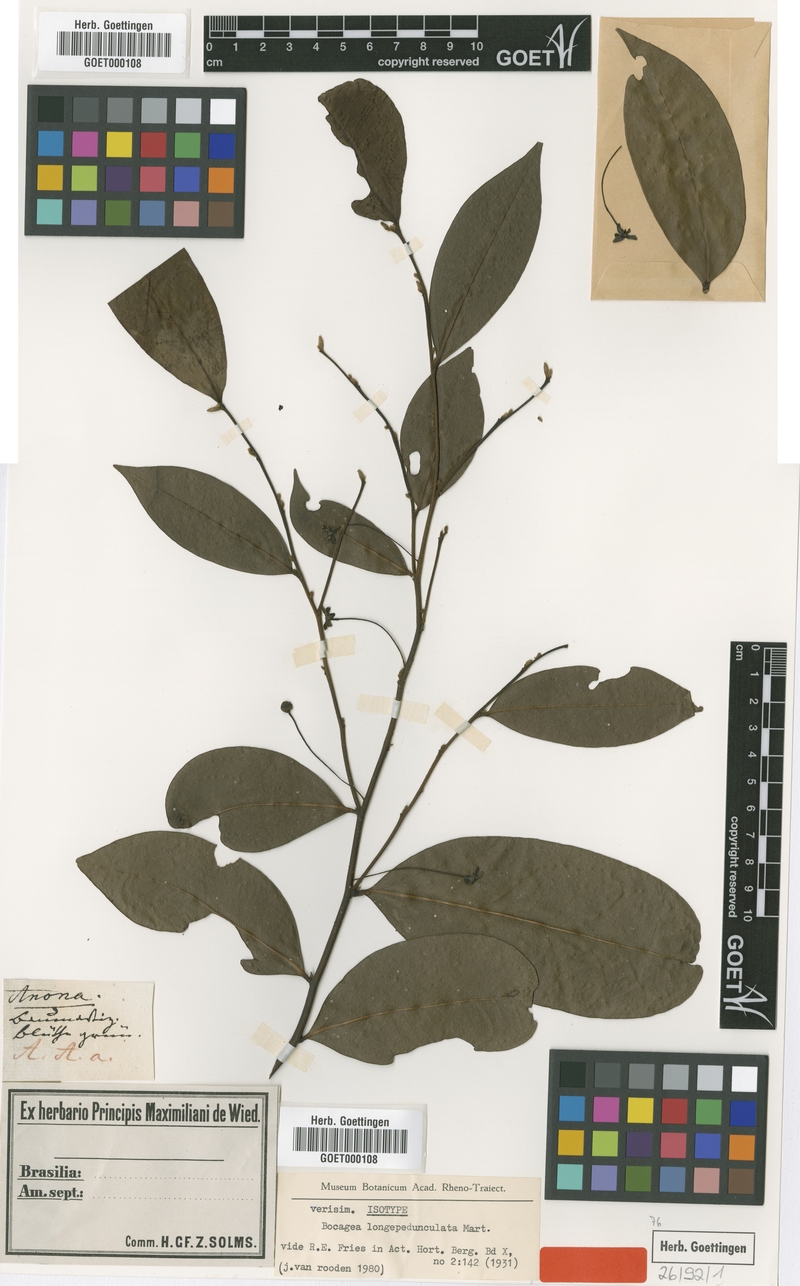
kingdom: Plantae
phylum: Tracheophyta
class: Magnoliopsida
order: Magnoliales
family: Annonaceae
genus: Bocagea
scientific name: Bocagea longepedunculata
